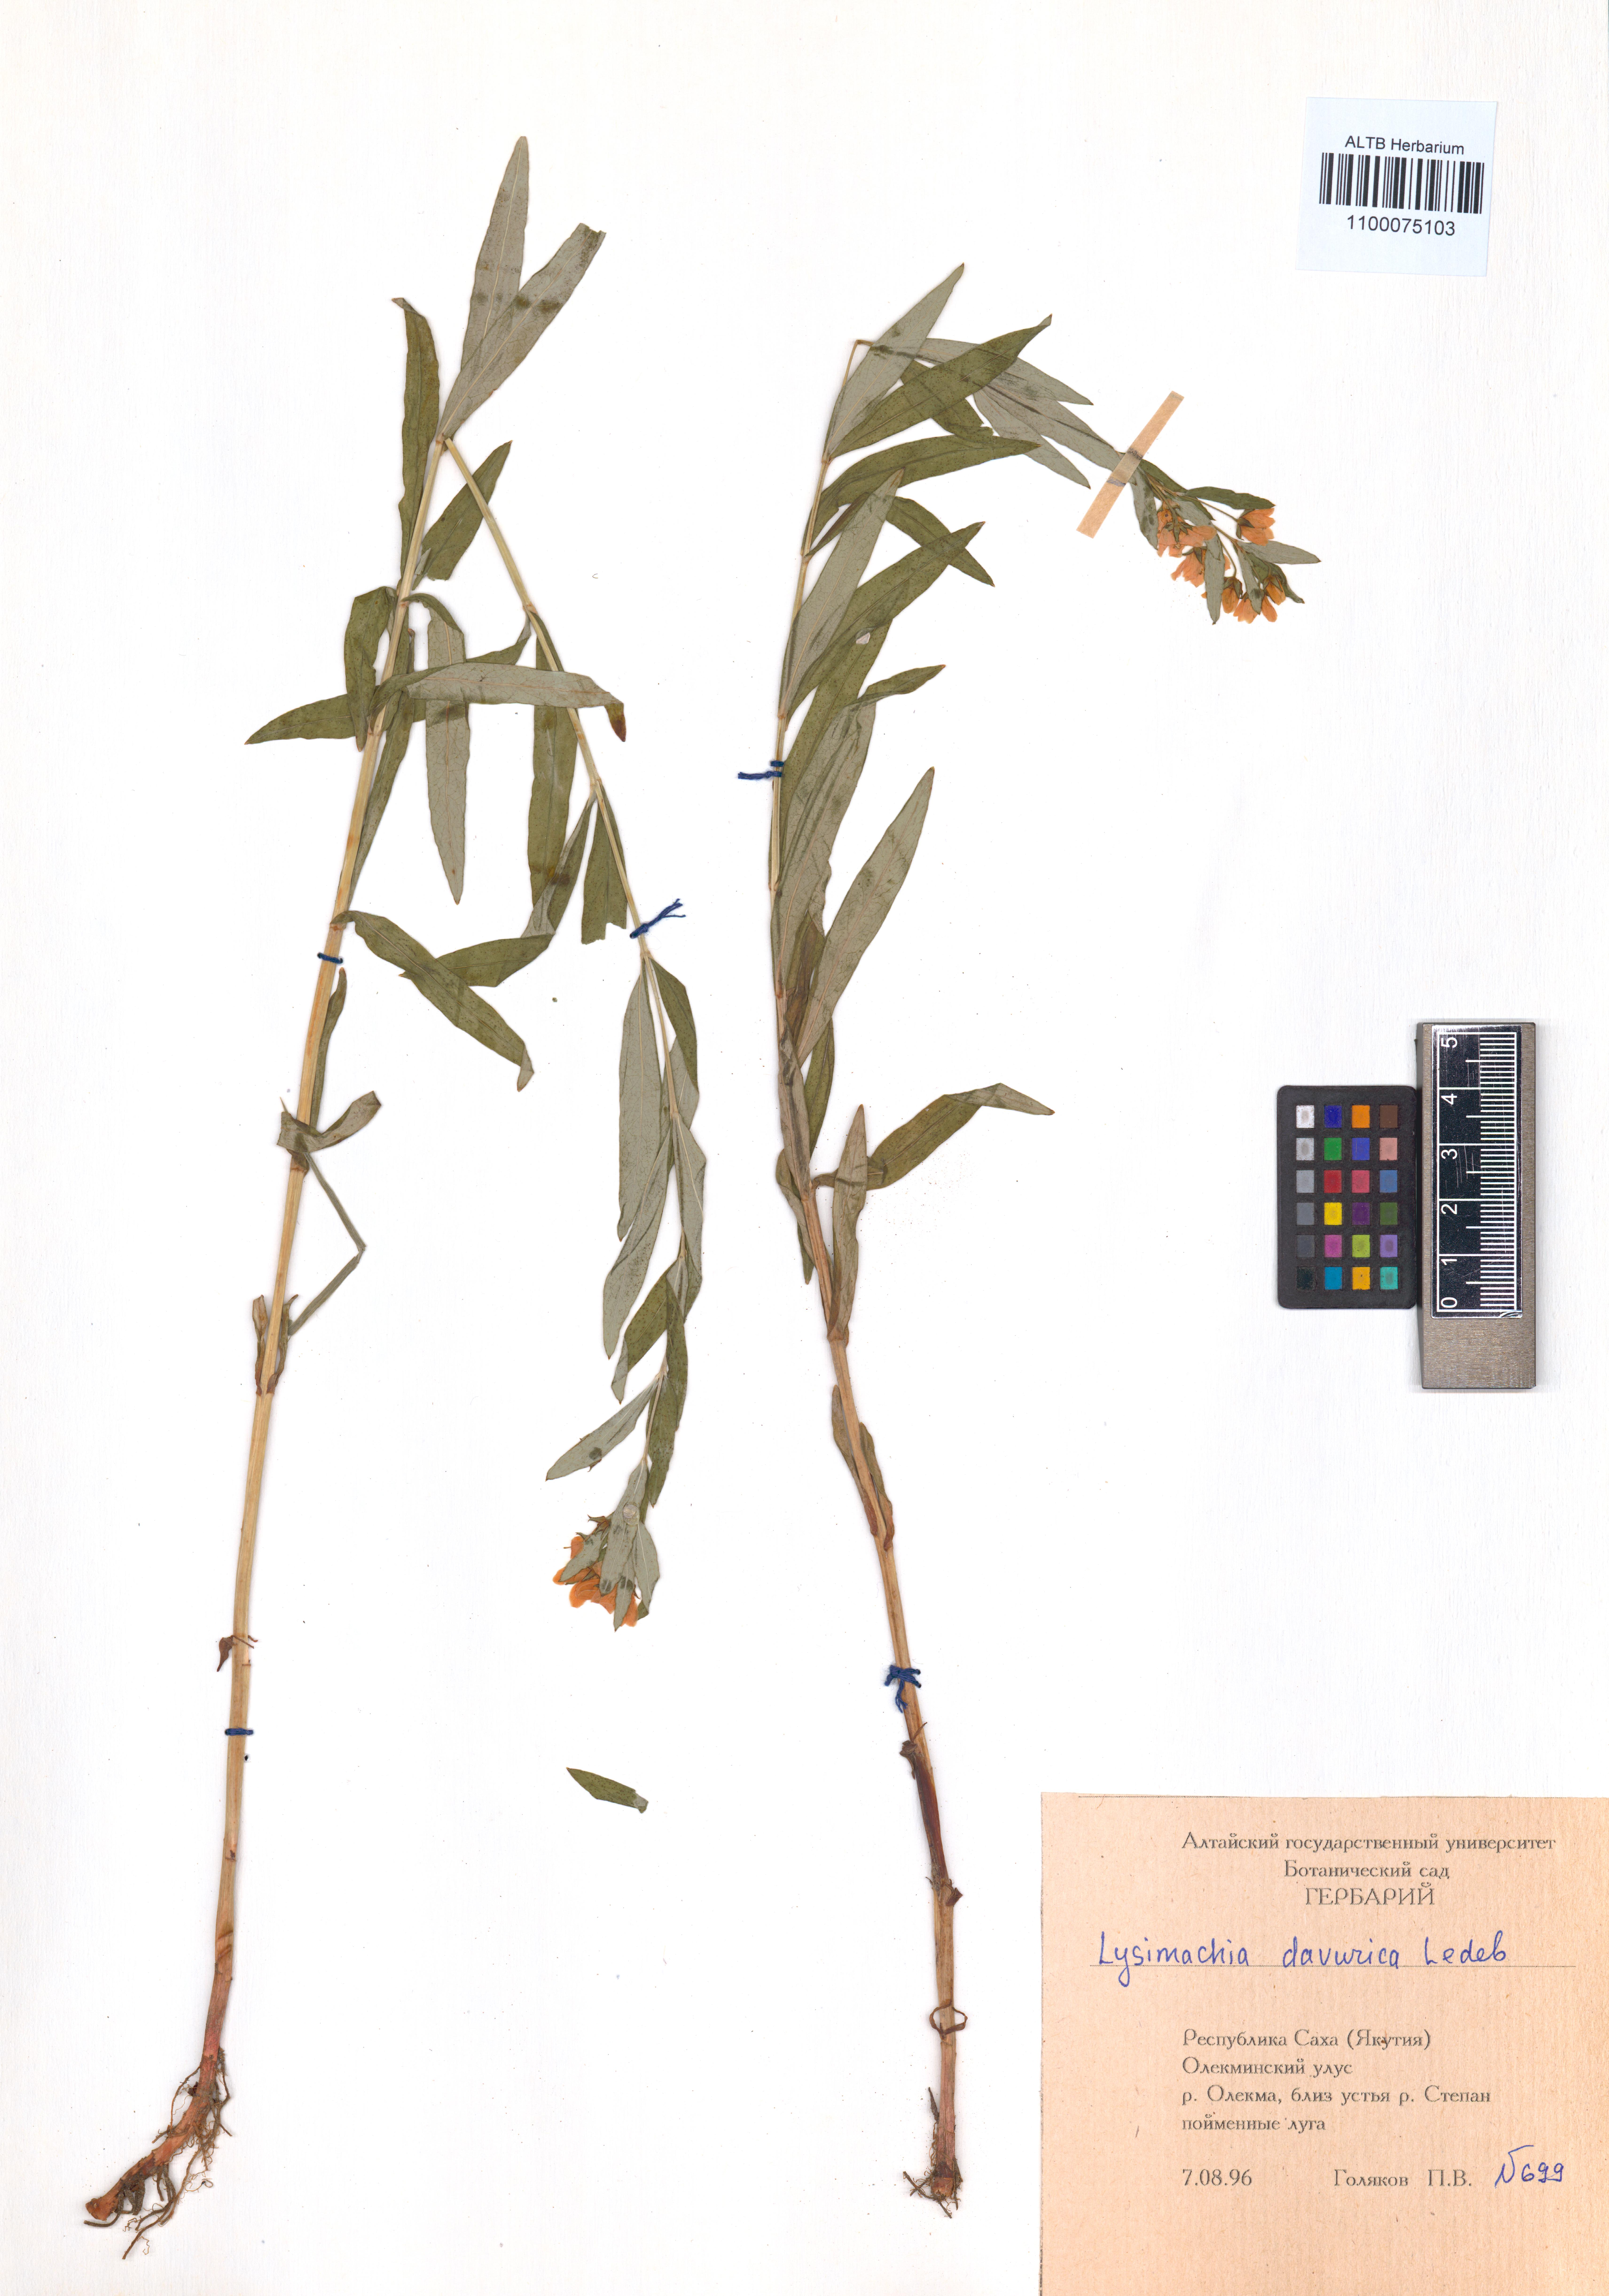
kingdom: Plantae
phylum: Tracheophyta
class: Magnoliopsida
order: Ericales
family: Primulaceae
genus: Lysimachia
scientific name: Lysimachia davurica
